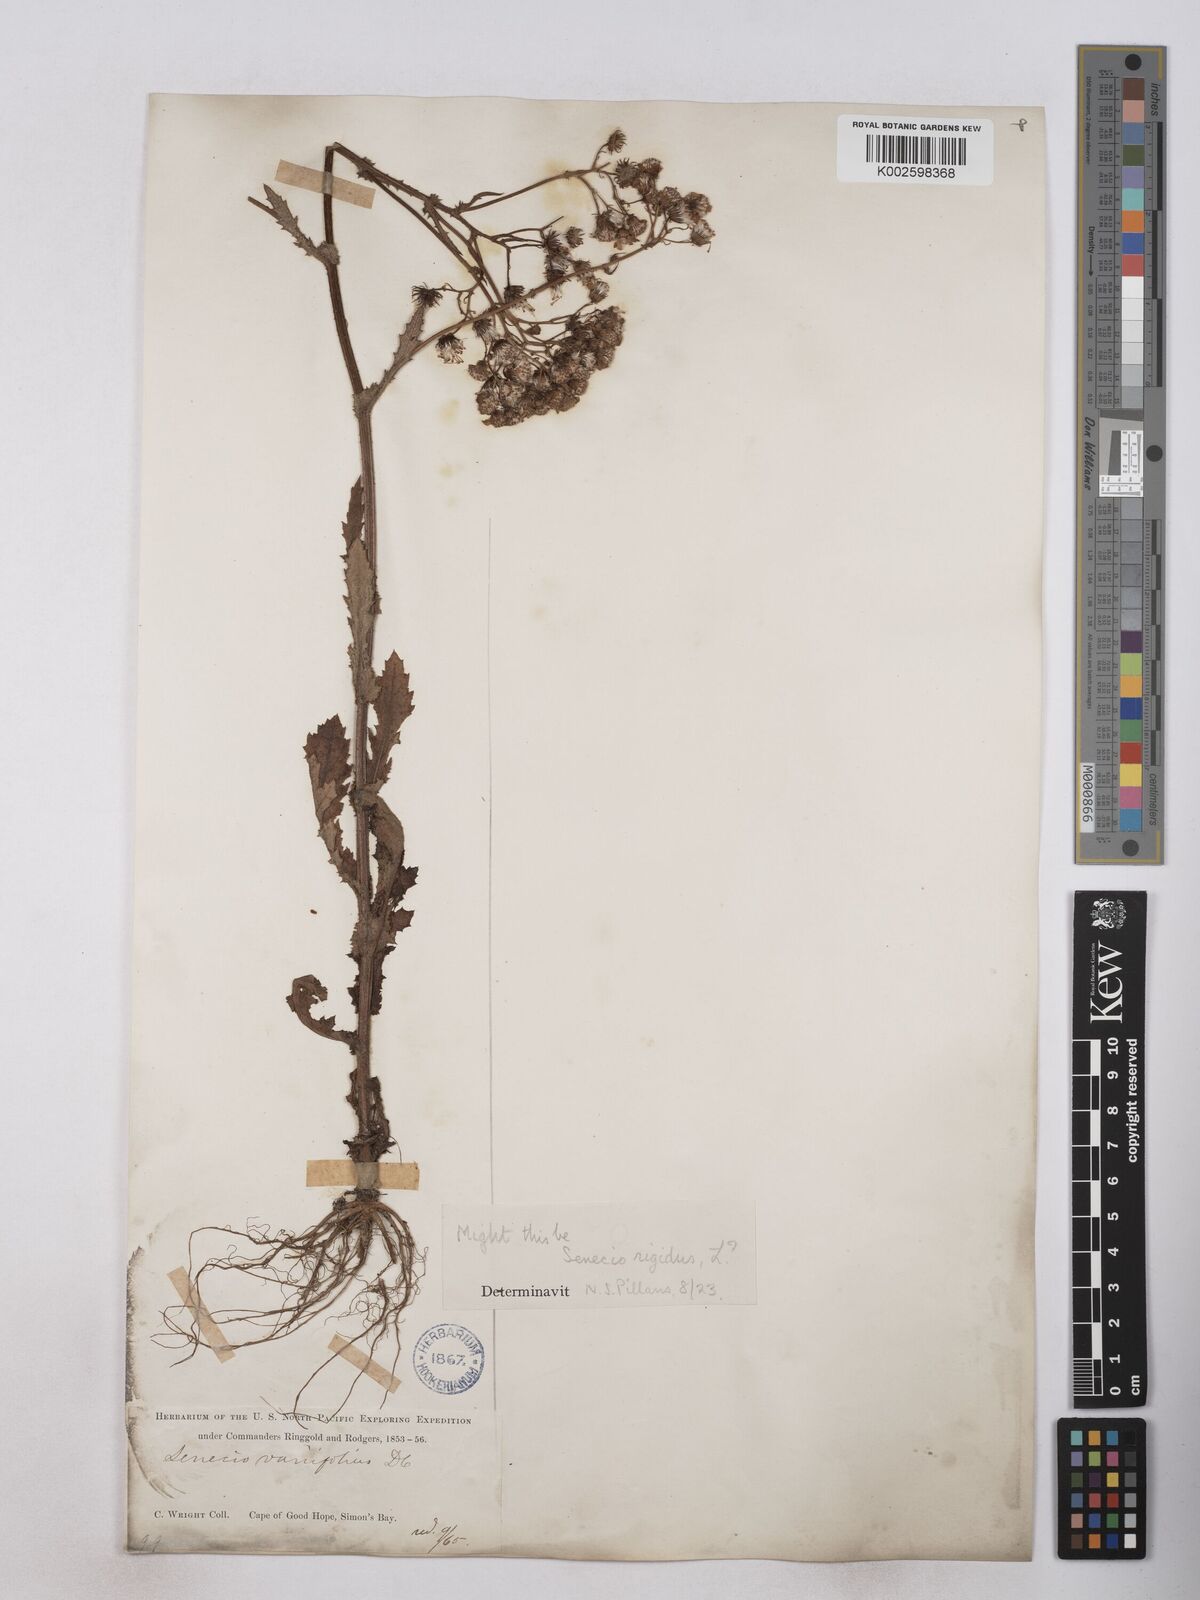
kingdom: Plantae
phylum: Tracheophyta
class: Magnoliopsida
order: Asterales
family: Asteraceae
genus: Senecio
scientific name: Senecio anapetes
